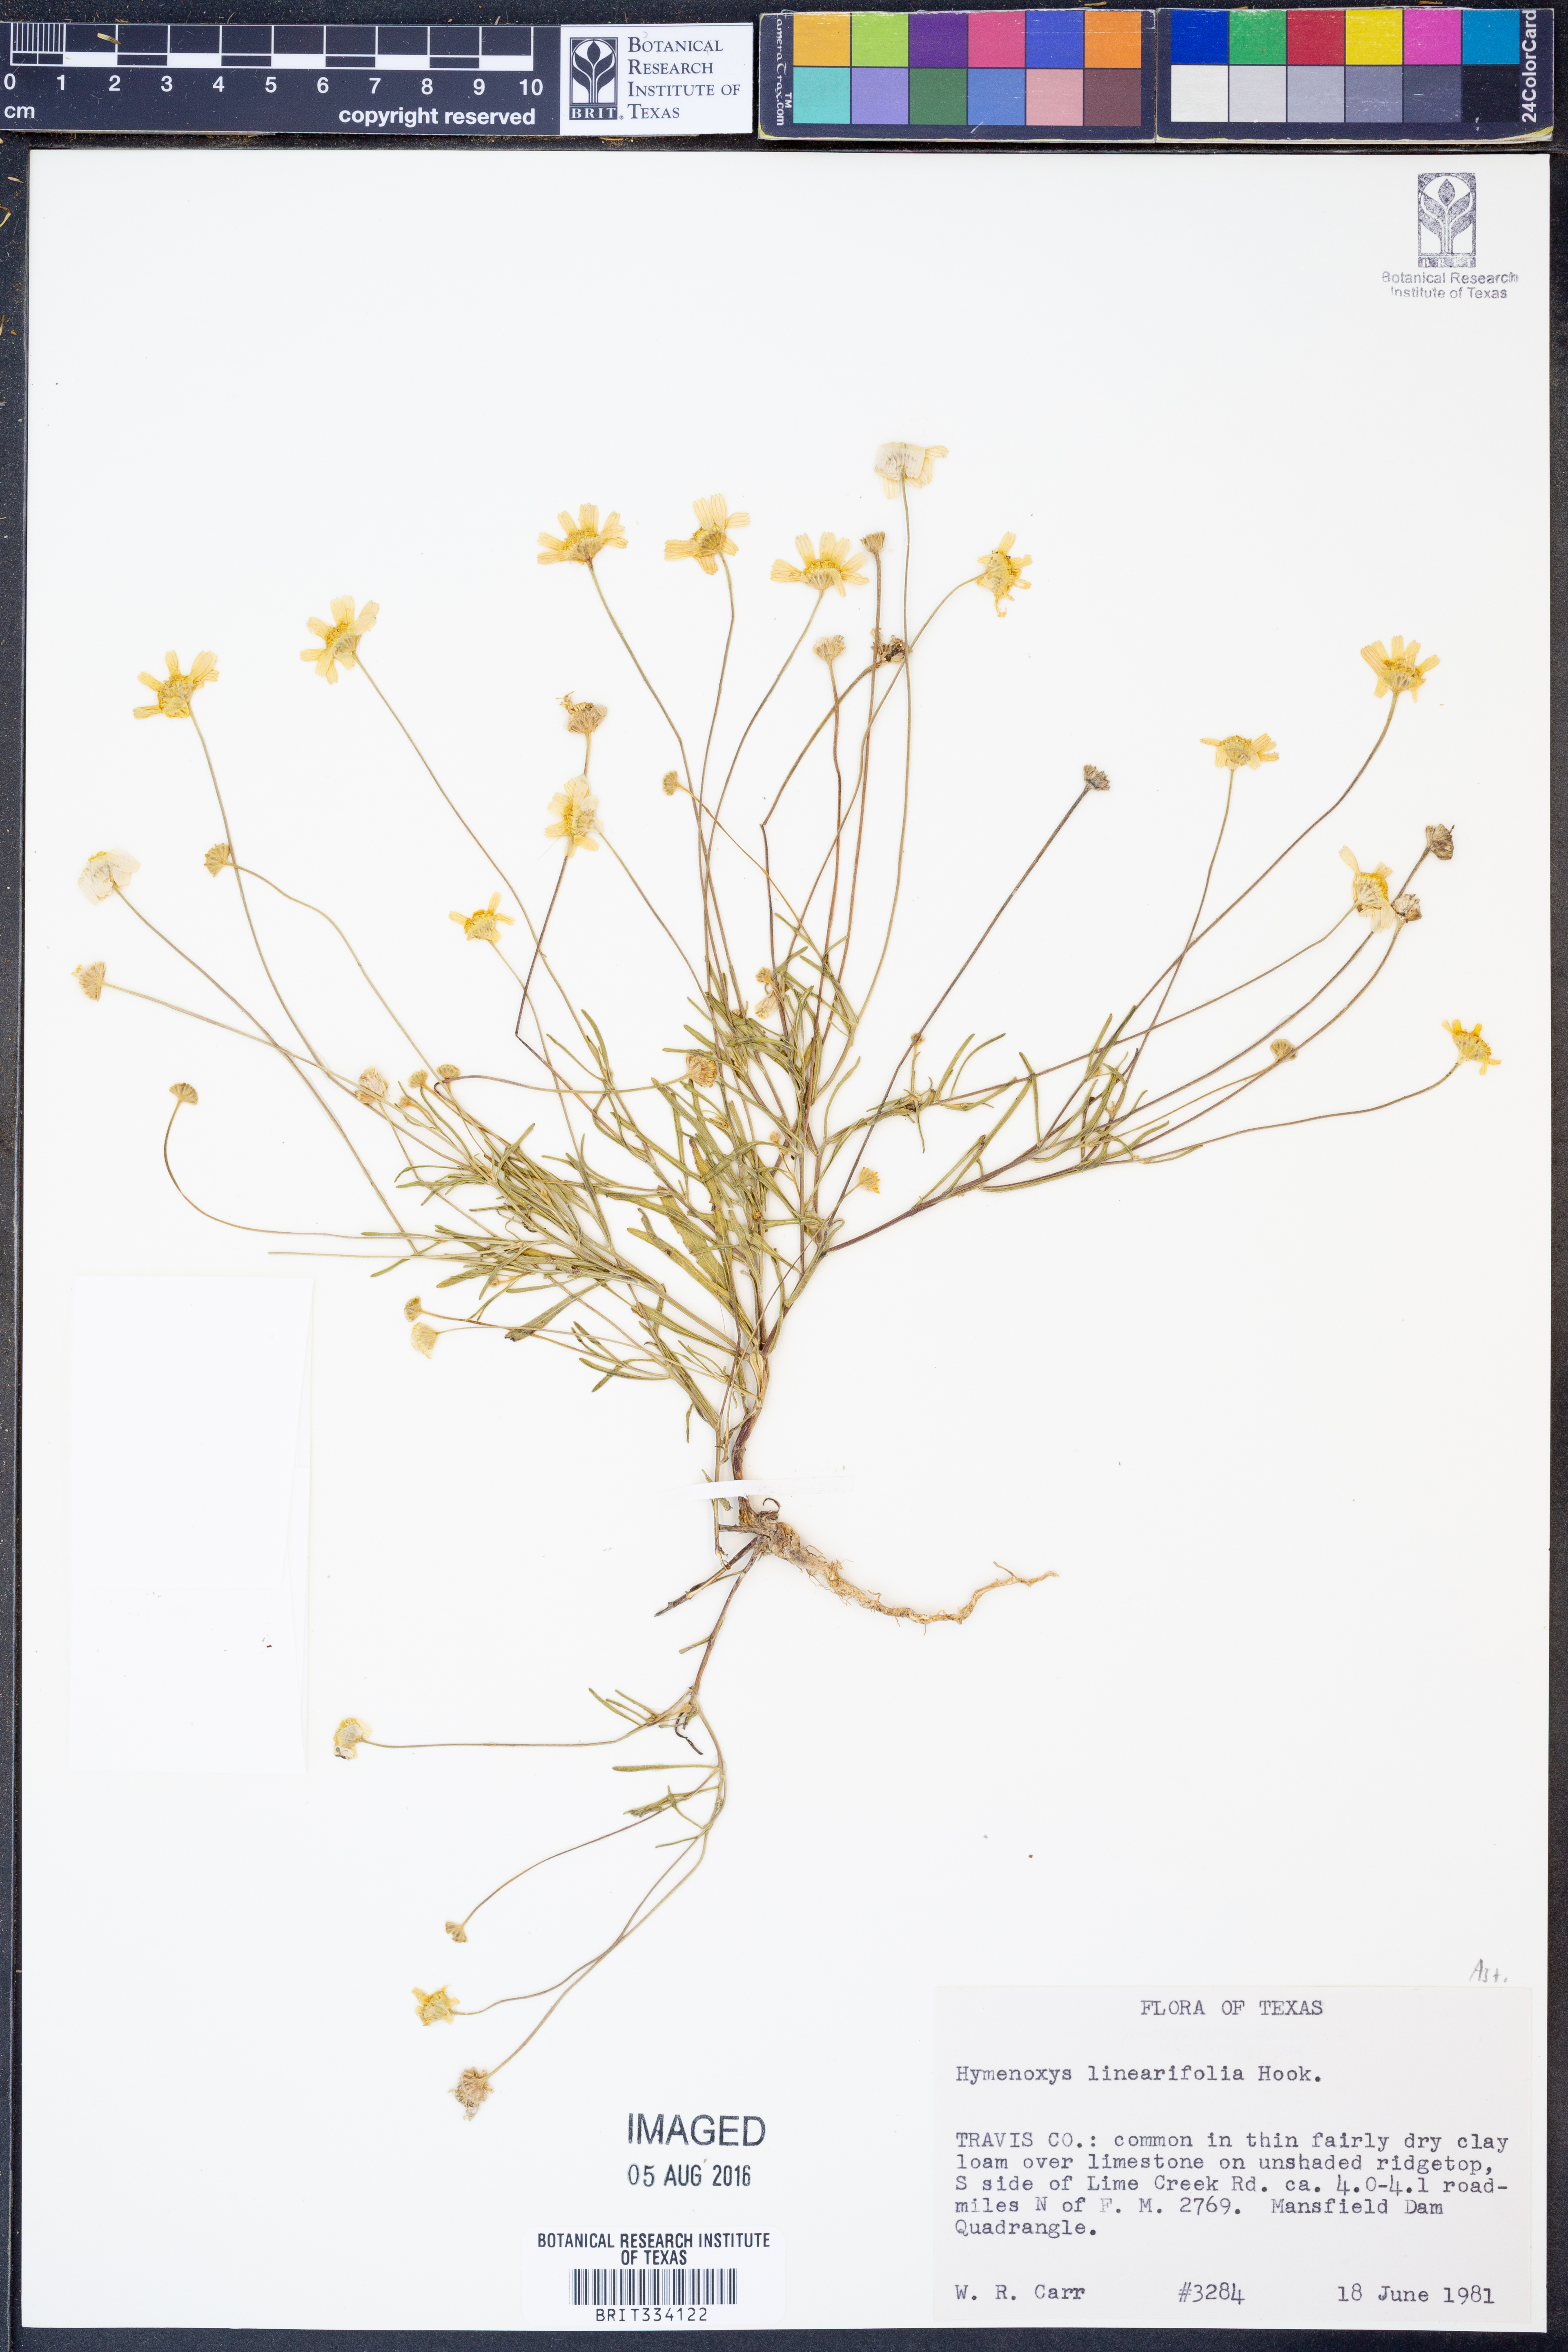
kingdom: Plantae
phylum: Tracheophyta
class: Magnoliopsida
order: Asterales
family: Asteraceae
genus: Tetraneuris
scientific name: Tetraneuris linearifolia
